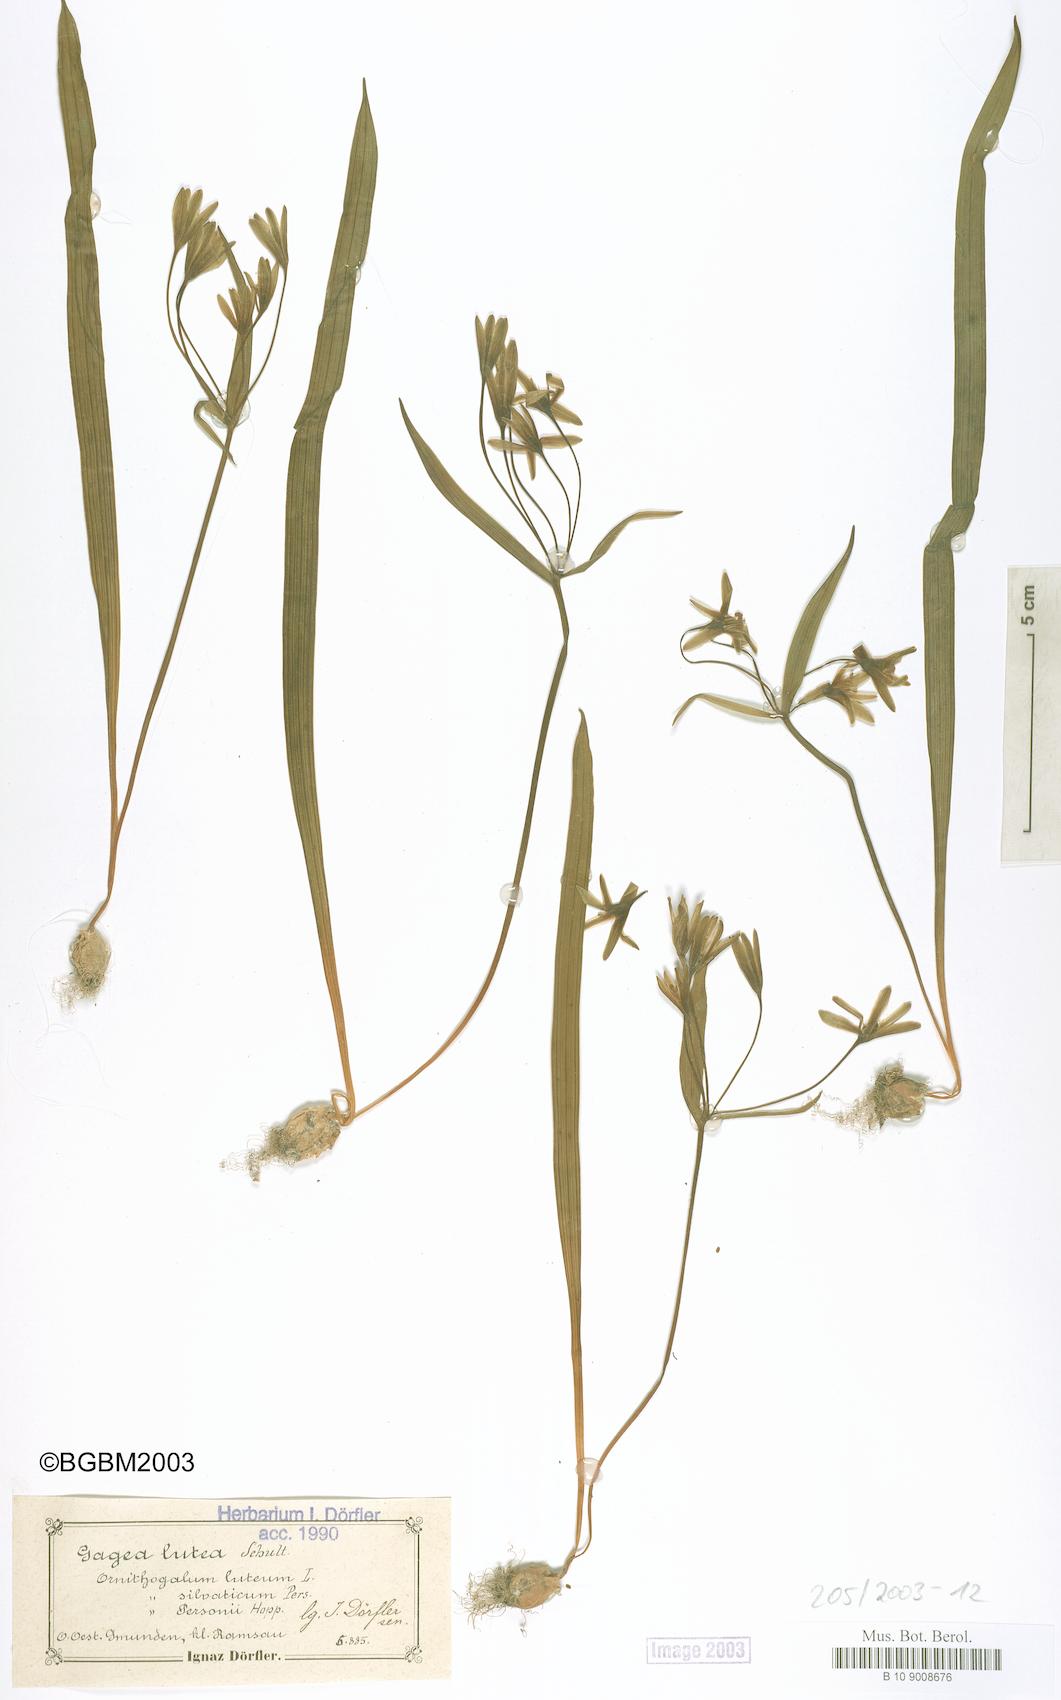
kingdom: Plantae
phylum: Tracheophyta
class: Liliopsida
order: Liliales
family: Liliaceae
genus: Gagea
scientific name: Gagea lutea
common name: Yellow star-of-bethlehem
